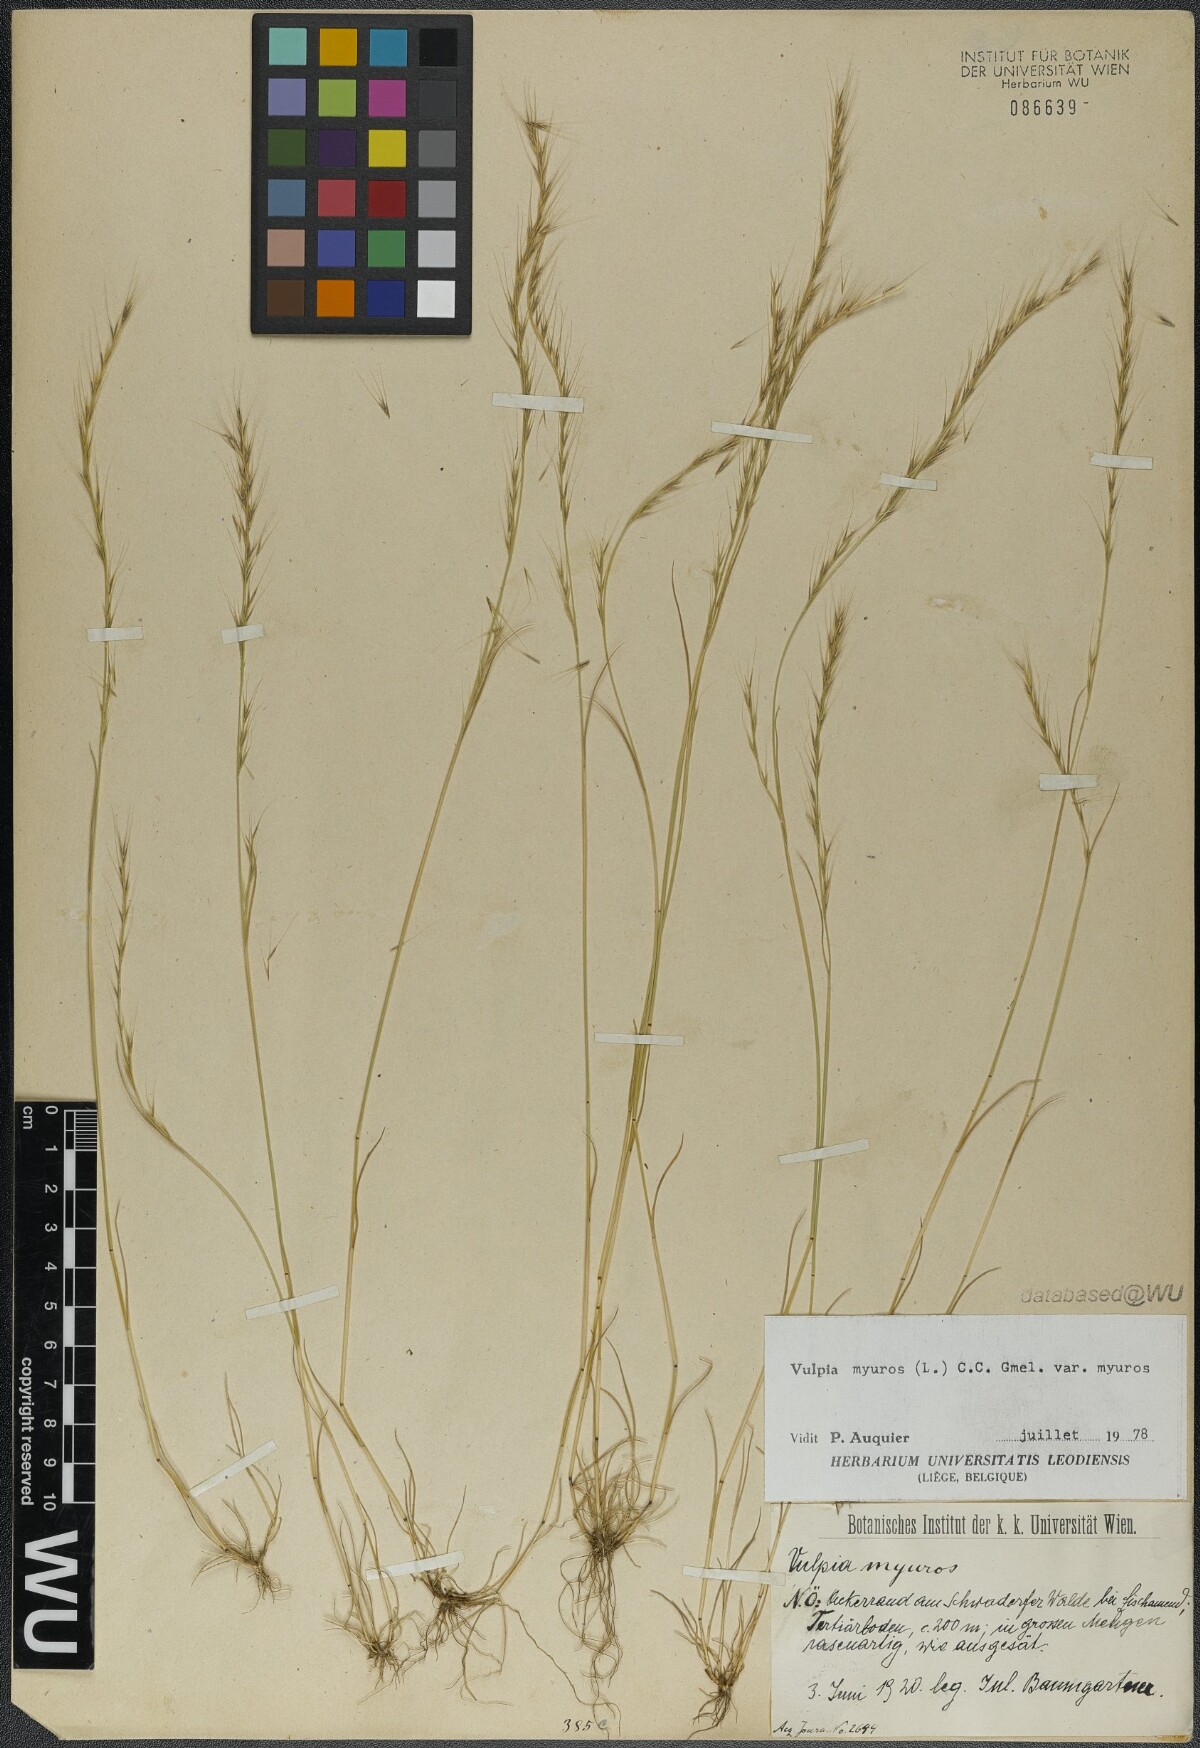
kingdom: Plantae
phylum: Tracheophyta
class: Liliopsida
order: Poales
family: Poaceae
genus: Festuca
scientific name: Festuca myuros
